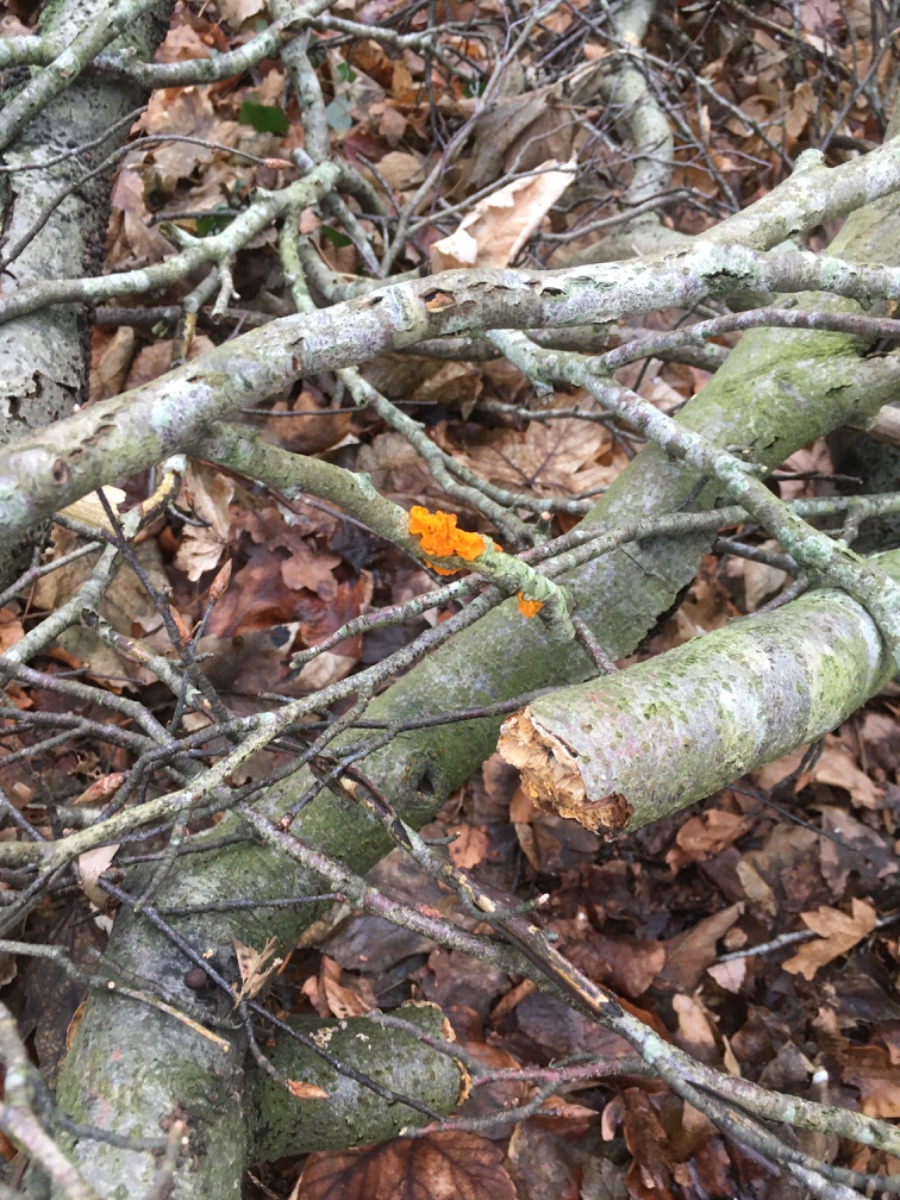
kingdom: Fungi
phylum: Basidiomycota
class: Tremellomycetes
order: Tremellales
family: Tremellaceae
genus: Tremella
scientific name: Tremella mesenterica
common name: gul bævresvamp
